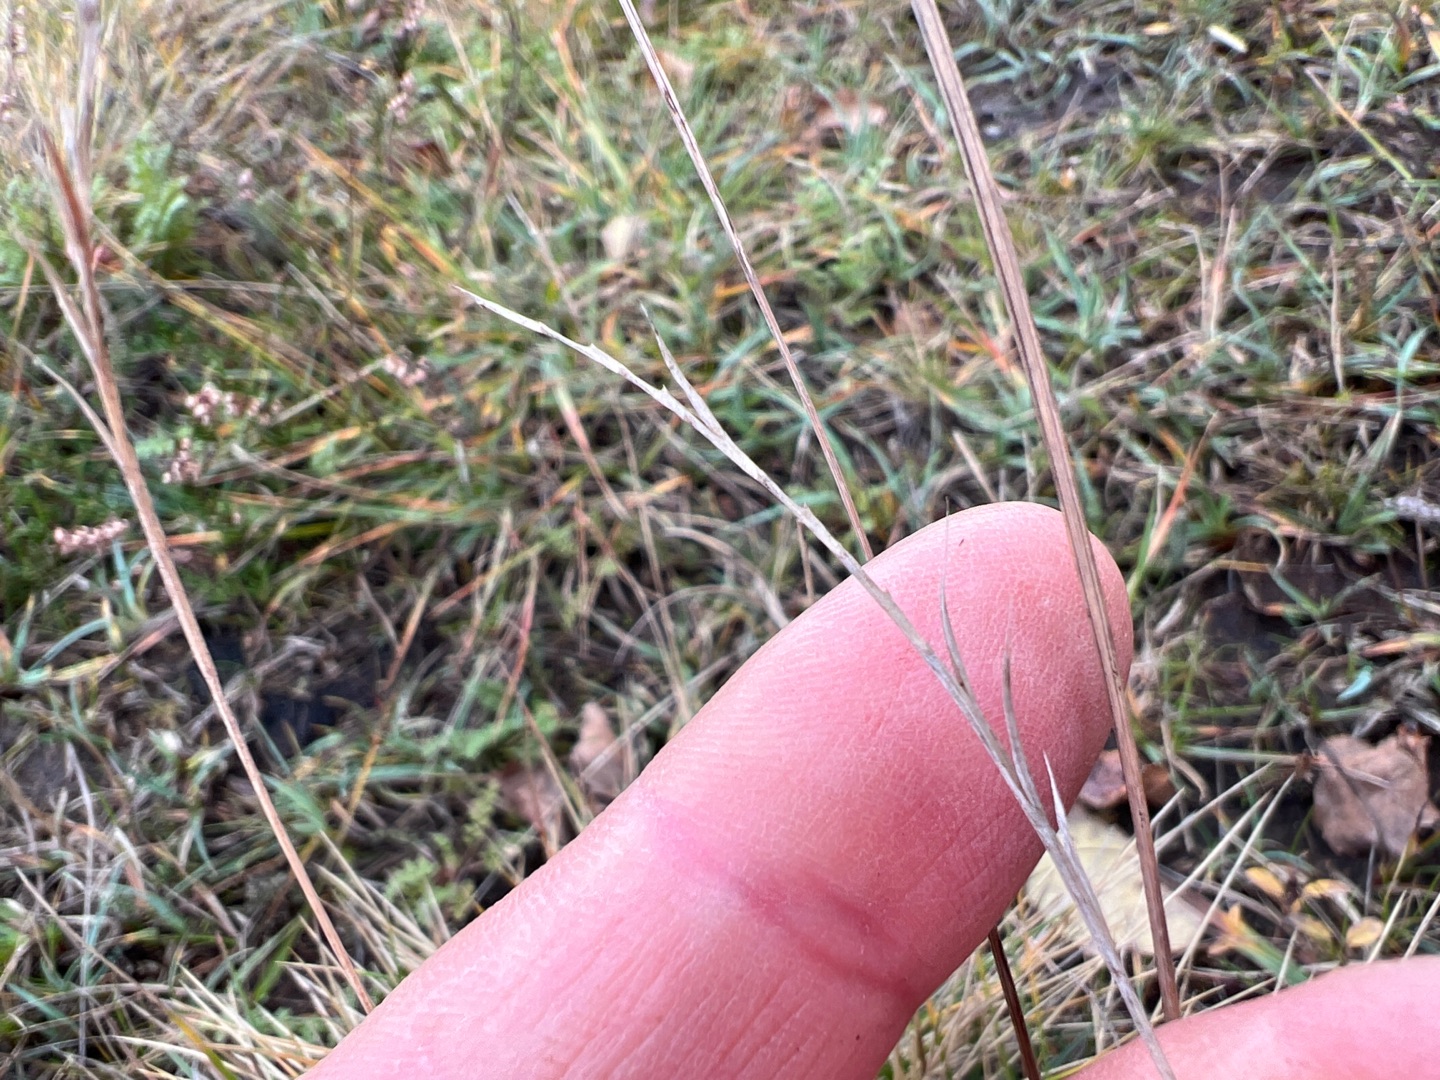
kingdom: Plantae
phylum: Tracheophyta
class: Liliopsida
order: Poales
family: Poaceae
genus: Nardus
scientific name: Nardus stricta
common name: Katteskæg
